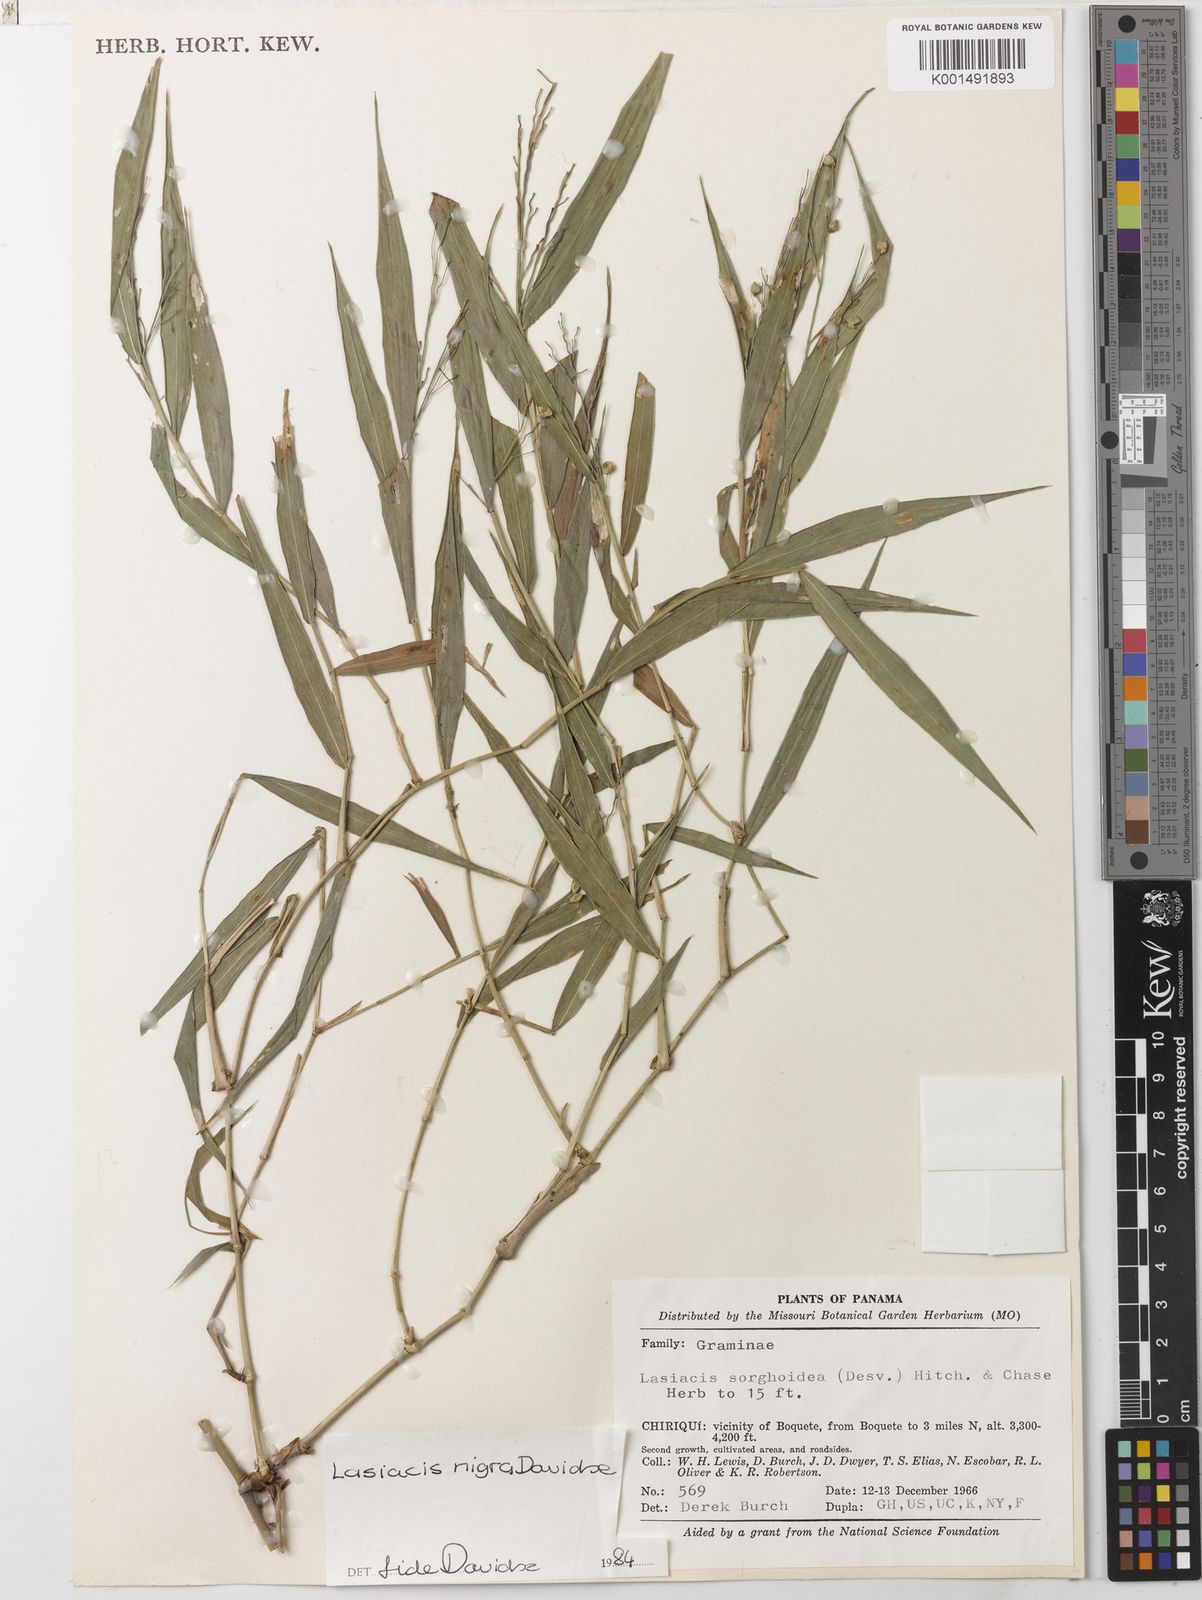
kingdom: Plantae
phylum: Tracheophyta
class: Liliopsida
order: Poales
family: Poaceae
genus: Lasiacis
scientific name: Lasiacis nigra
